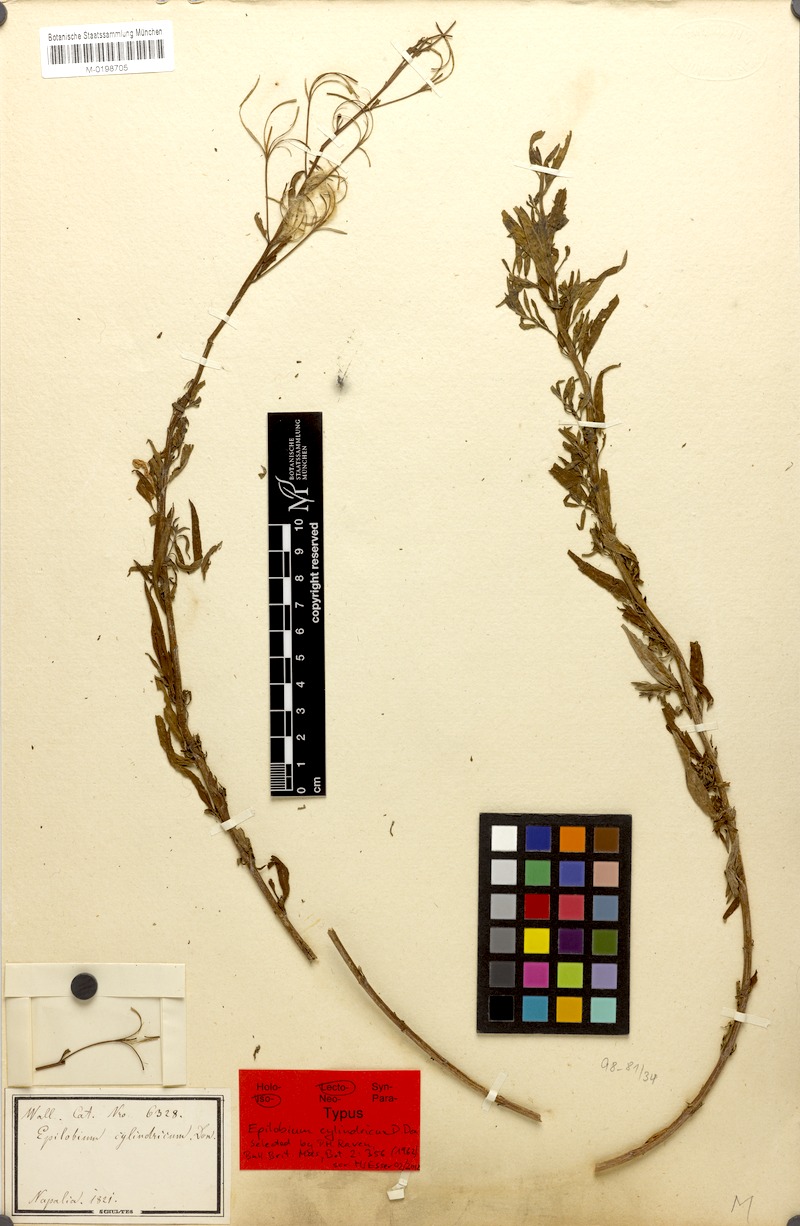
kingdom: Plantae
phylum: Tracheophyta
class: Magnoliopsida
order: Myrtales
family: Onagraceae
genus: Epilobium
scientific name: Epilobium cylindricum
